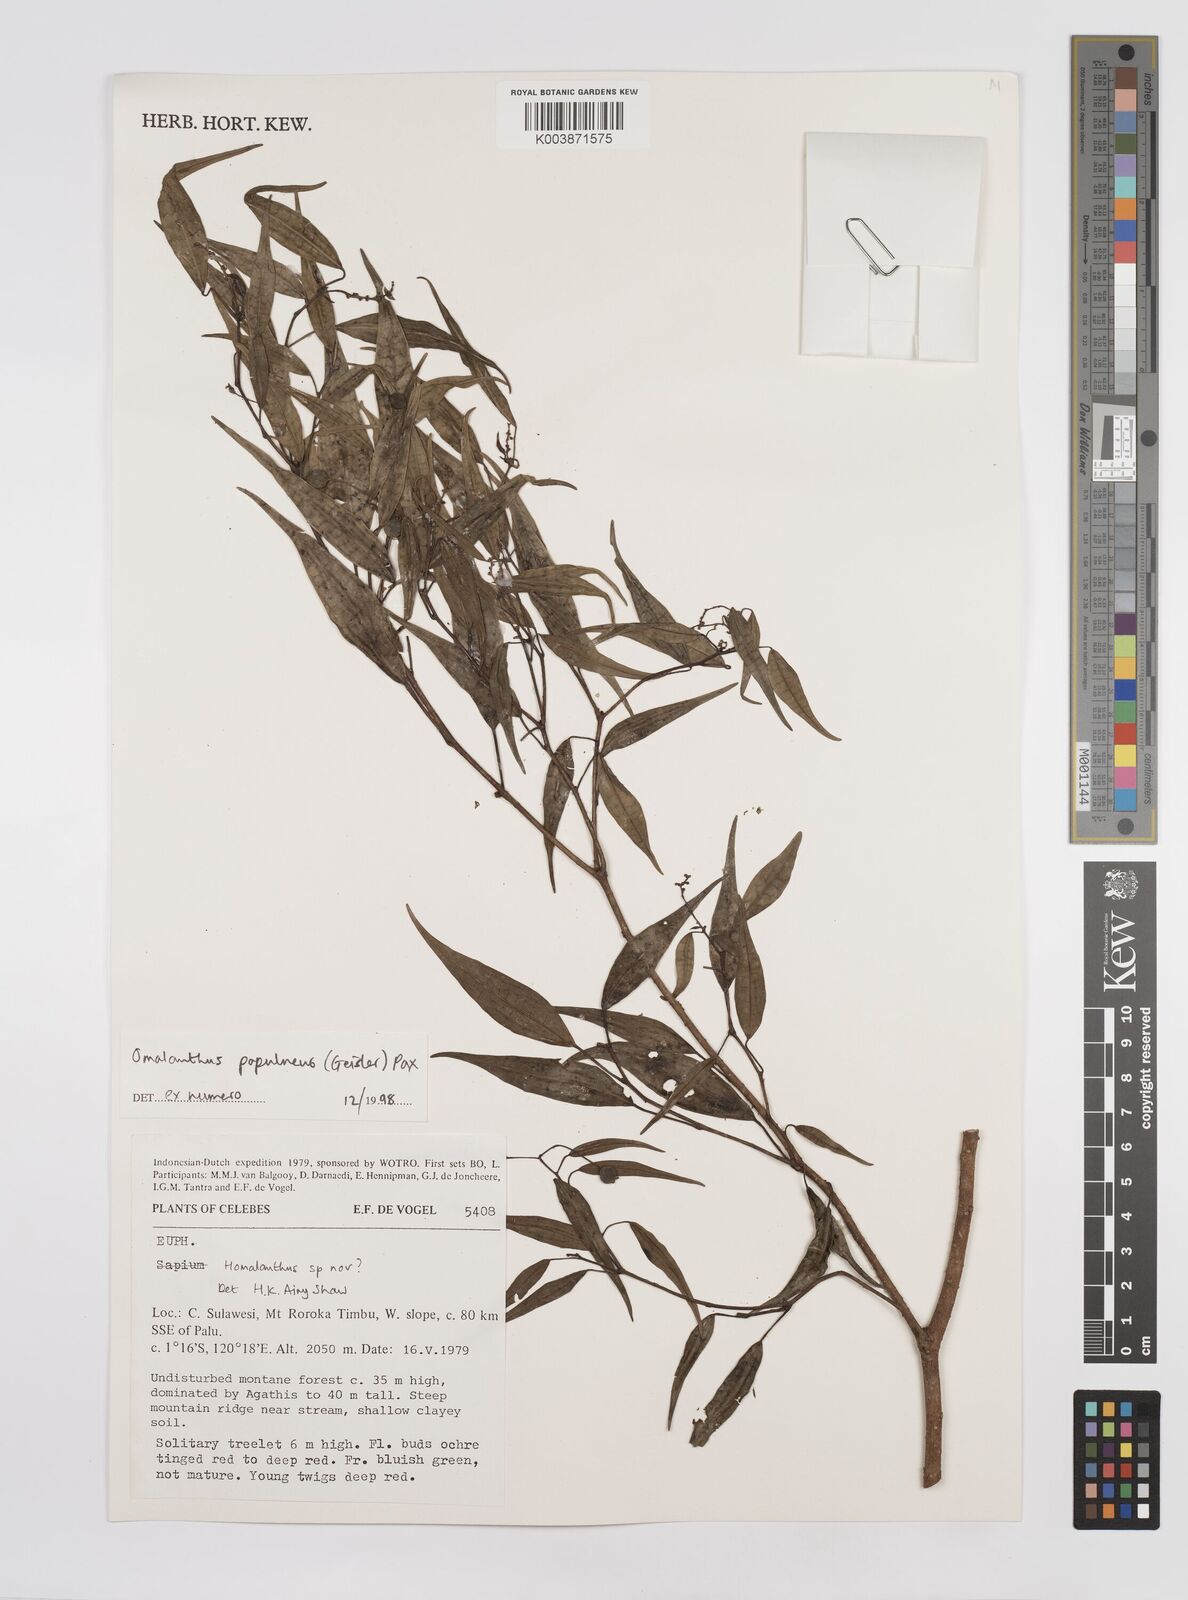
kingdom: Plantae
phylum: Tracheophyta
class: Magnoliopsida
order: Malpighiales
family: Euphorbiaceae
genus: Homalanthus
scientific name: Homalanthus populneus
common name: Spurge
